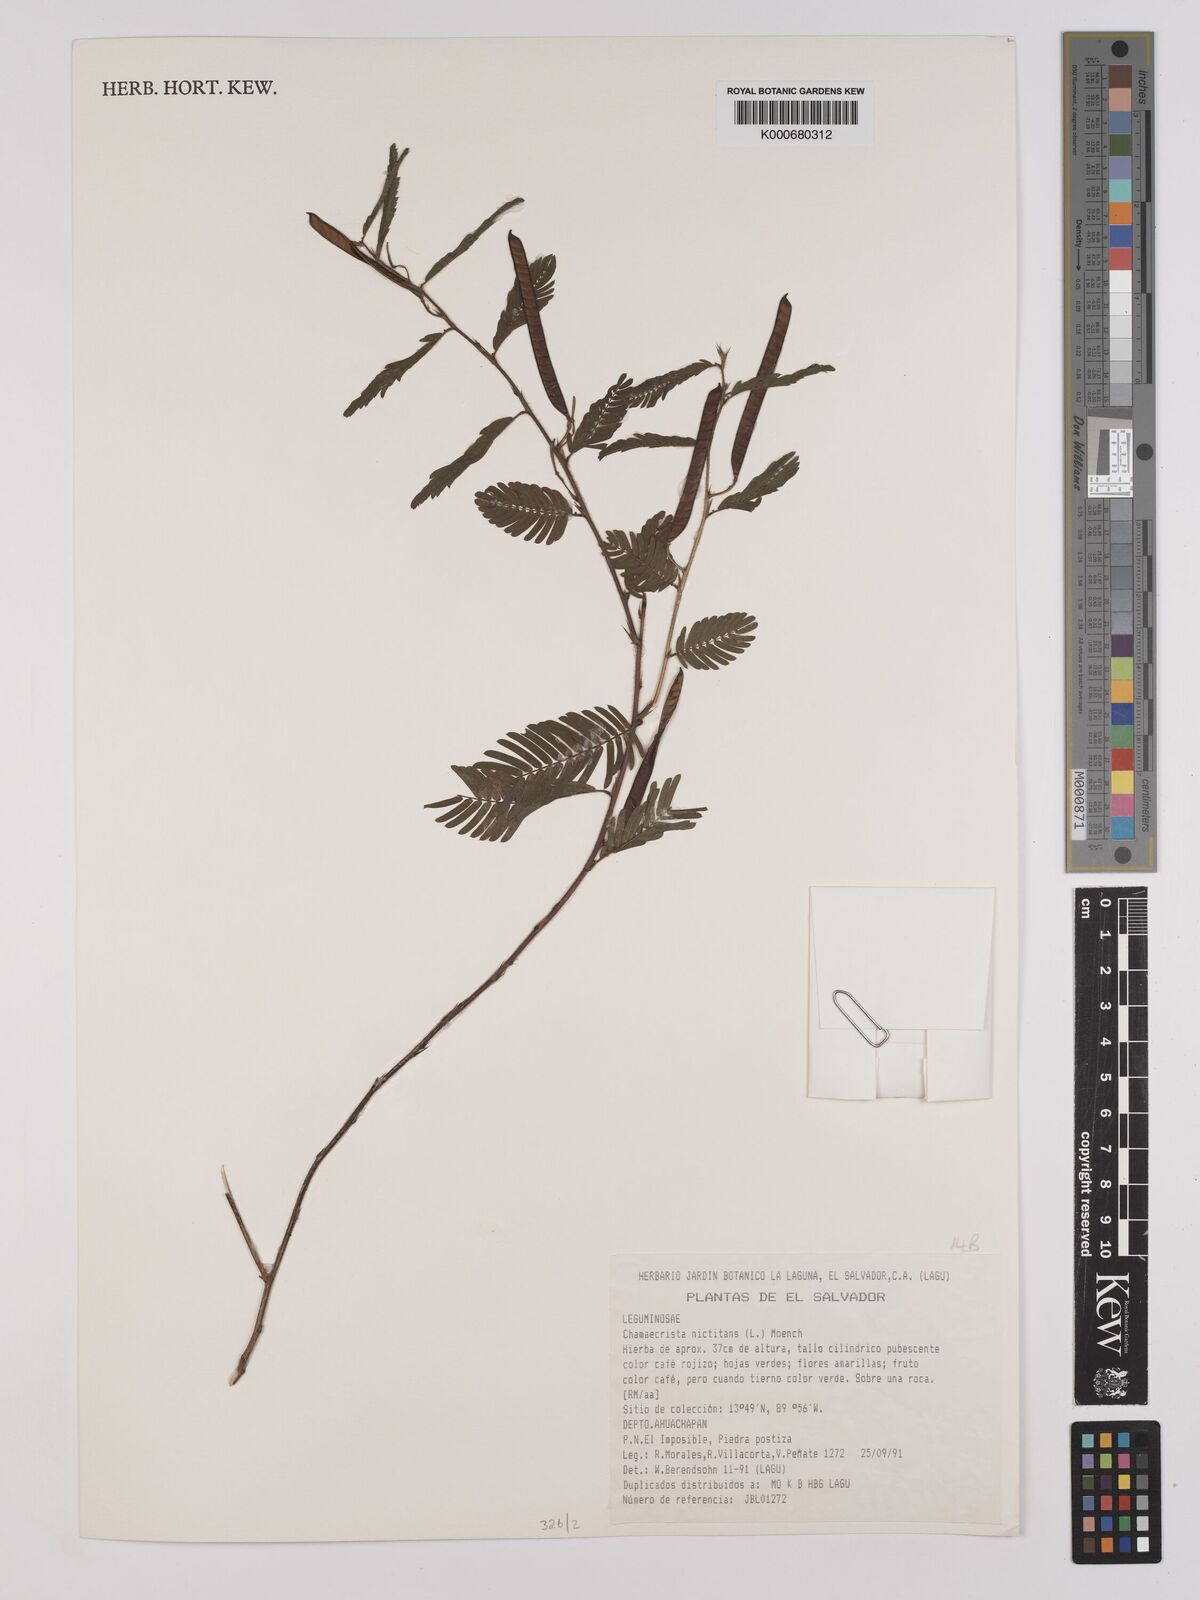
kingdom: Plantae
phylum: Tracheophyta
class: Magnoliopsida
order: Fabales
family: Fabaceae
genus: Chamaecrista
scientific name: Chamaecrista nictitans
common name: Sensitive cassia
